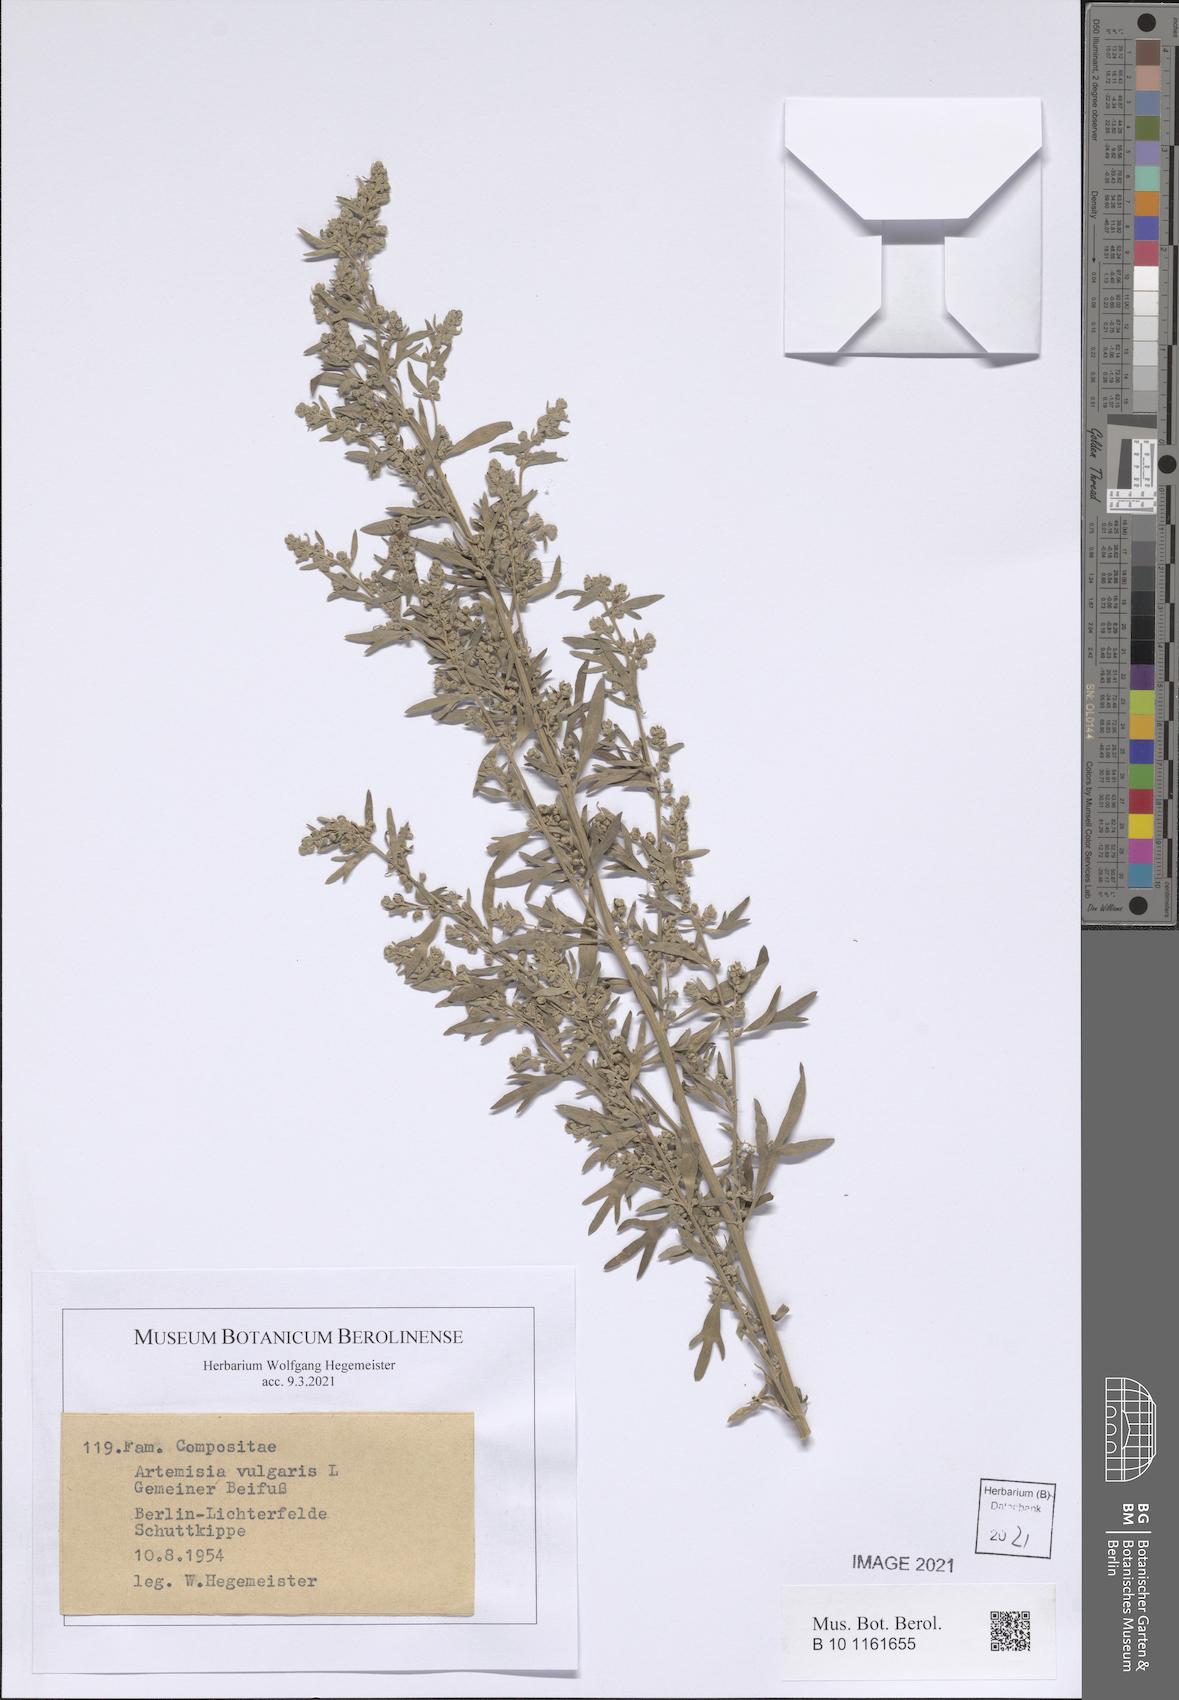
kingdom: Plantae
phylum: Tracheophyta
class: Magnoliopsida
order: Asterales
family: Asteraceae
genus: Artemisia
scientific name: Artemisia vulgaris
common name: Mugwort
